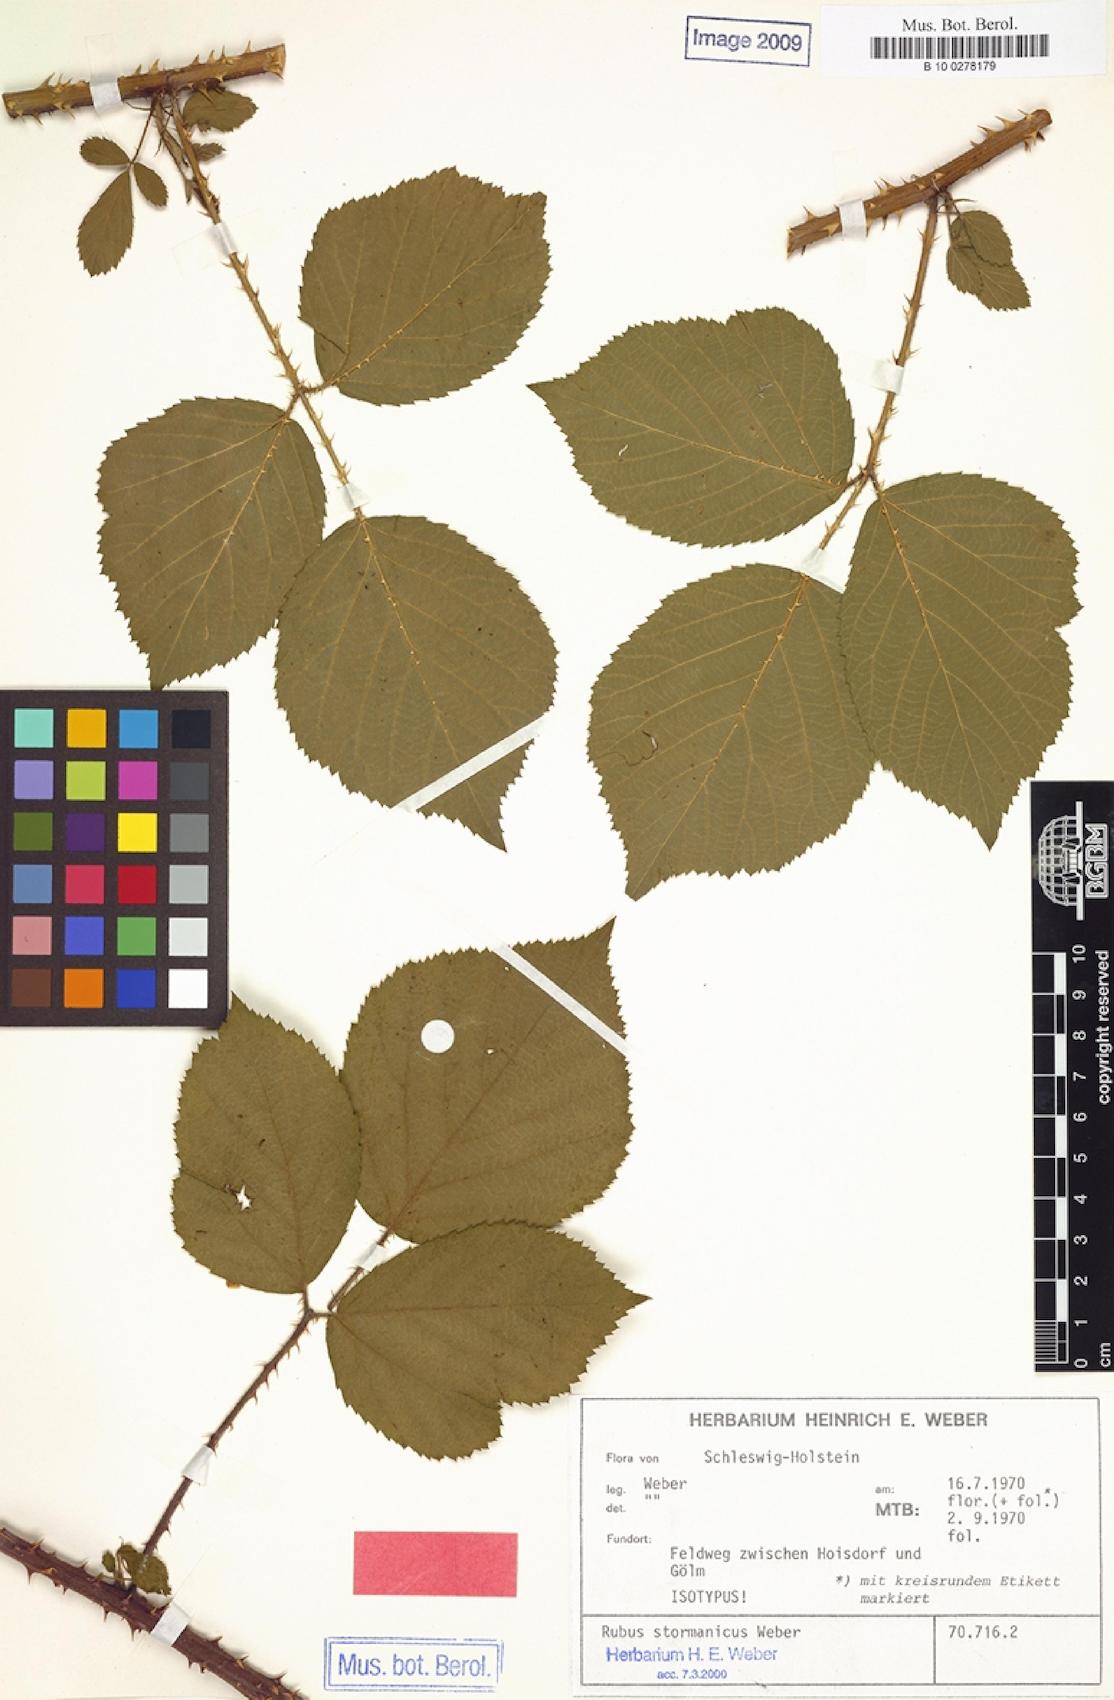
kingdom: Plantae
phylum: Tracheophyta
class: Magnoliopsida
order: Rosales
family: Rosaceae
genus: Rubus
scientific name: Rubus stormanicus
